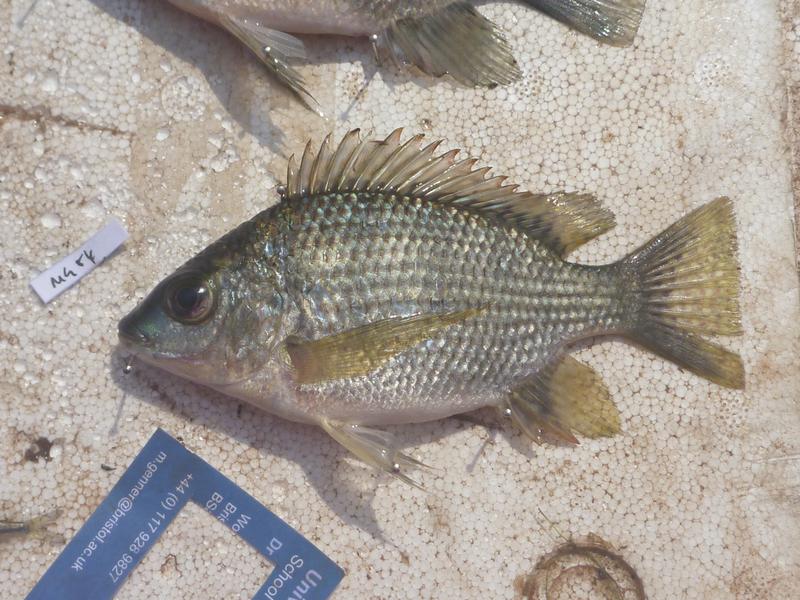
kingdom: Animalia
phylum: Chordata
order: Perciformes
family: Cichlidae
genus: Oreochromis
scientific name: Oreochromis tanganicae
